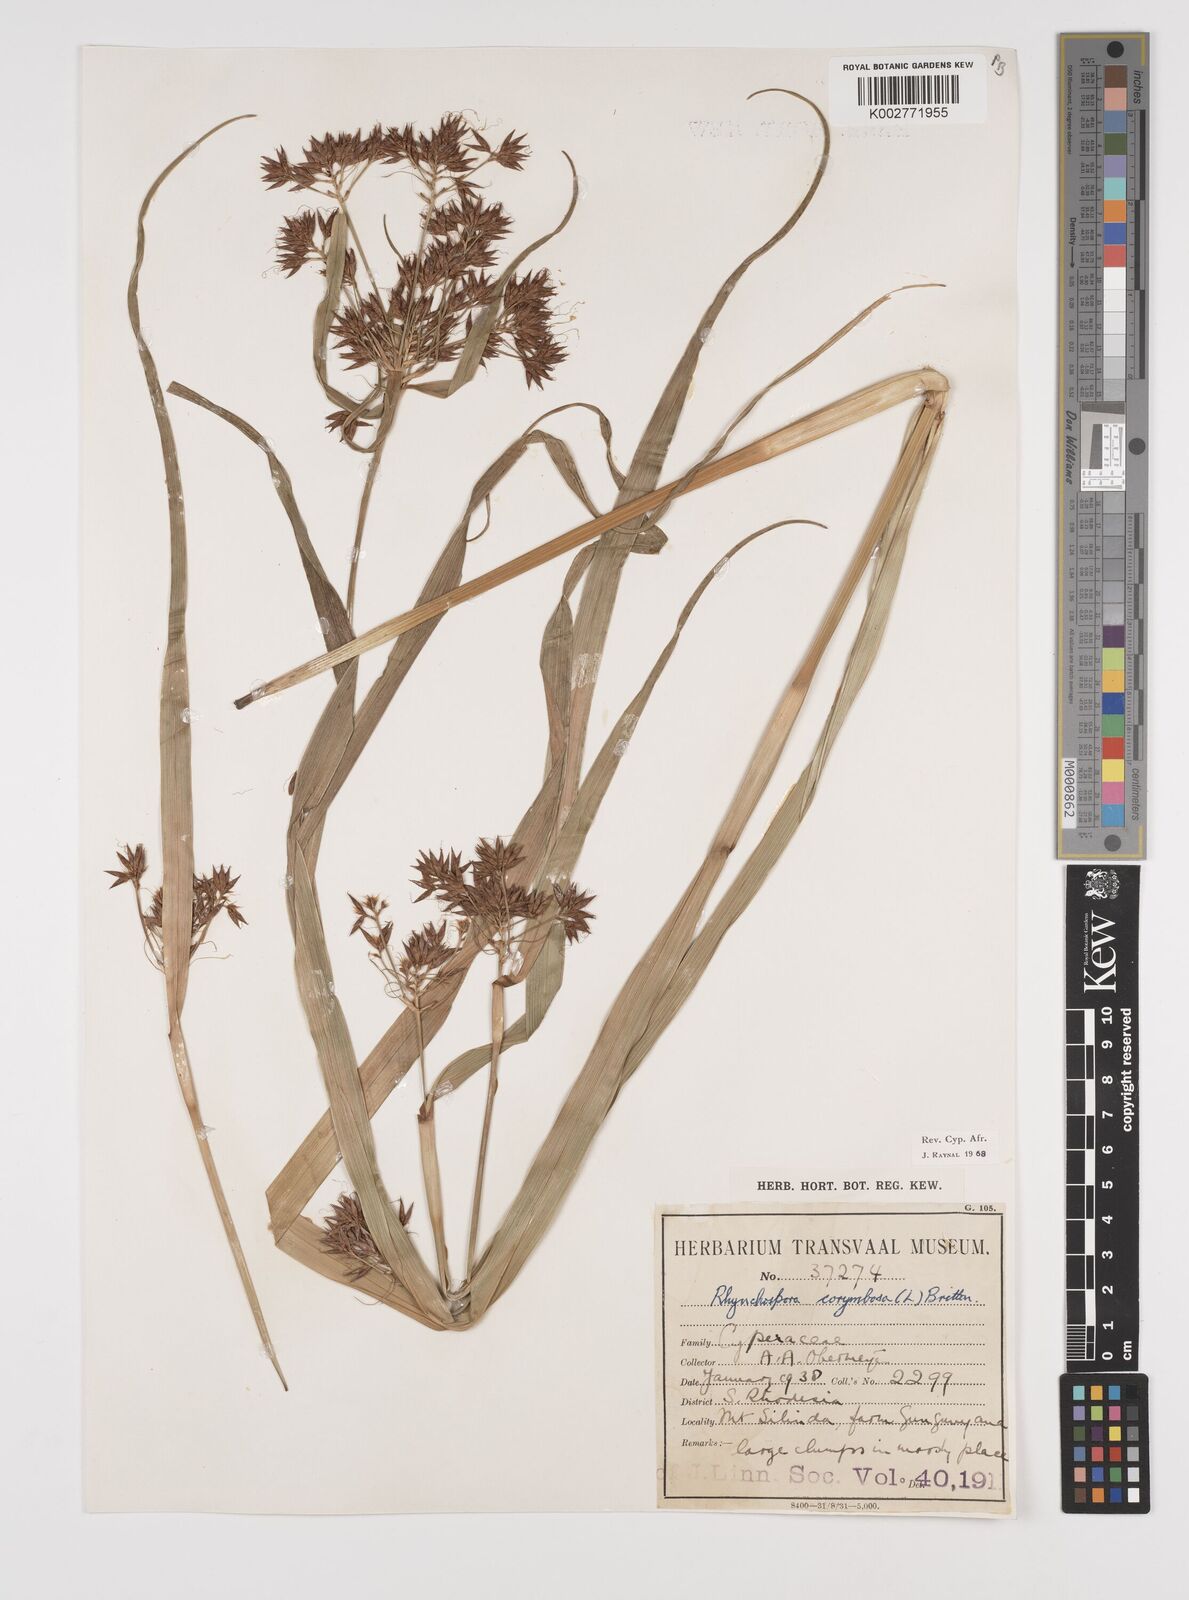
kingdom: Plantae
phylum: Tracheophyta
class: Liliopsida
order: Poales
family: Cyperaceae
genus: Rhynchospora
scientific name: Rhynchospora corymbosa
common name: Golden beak sedge
